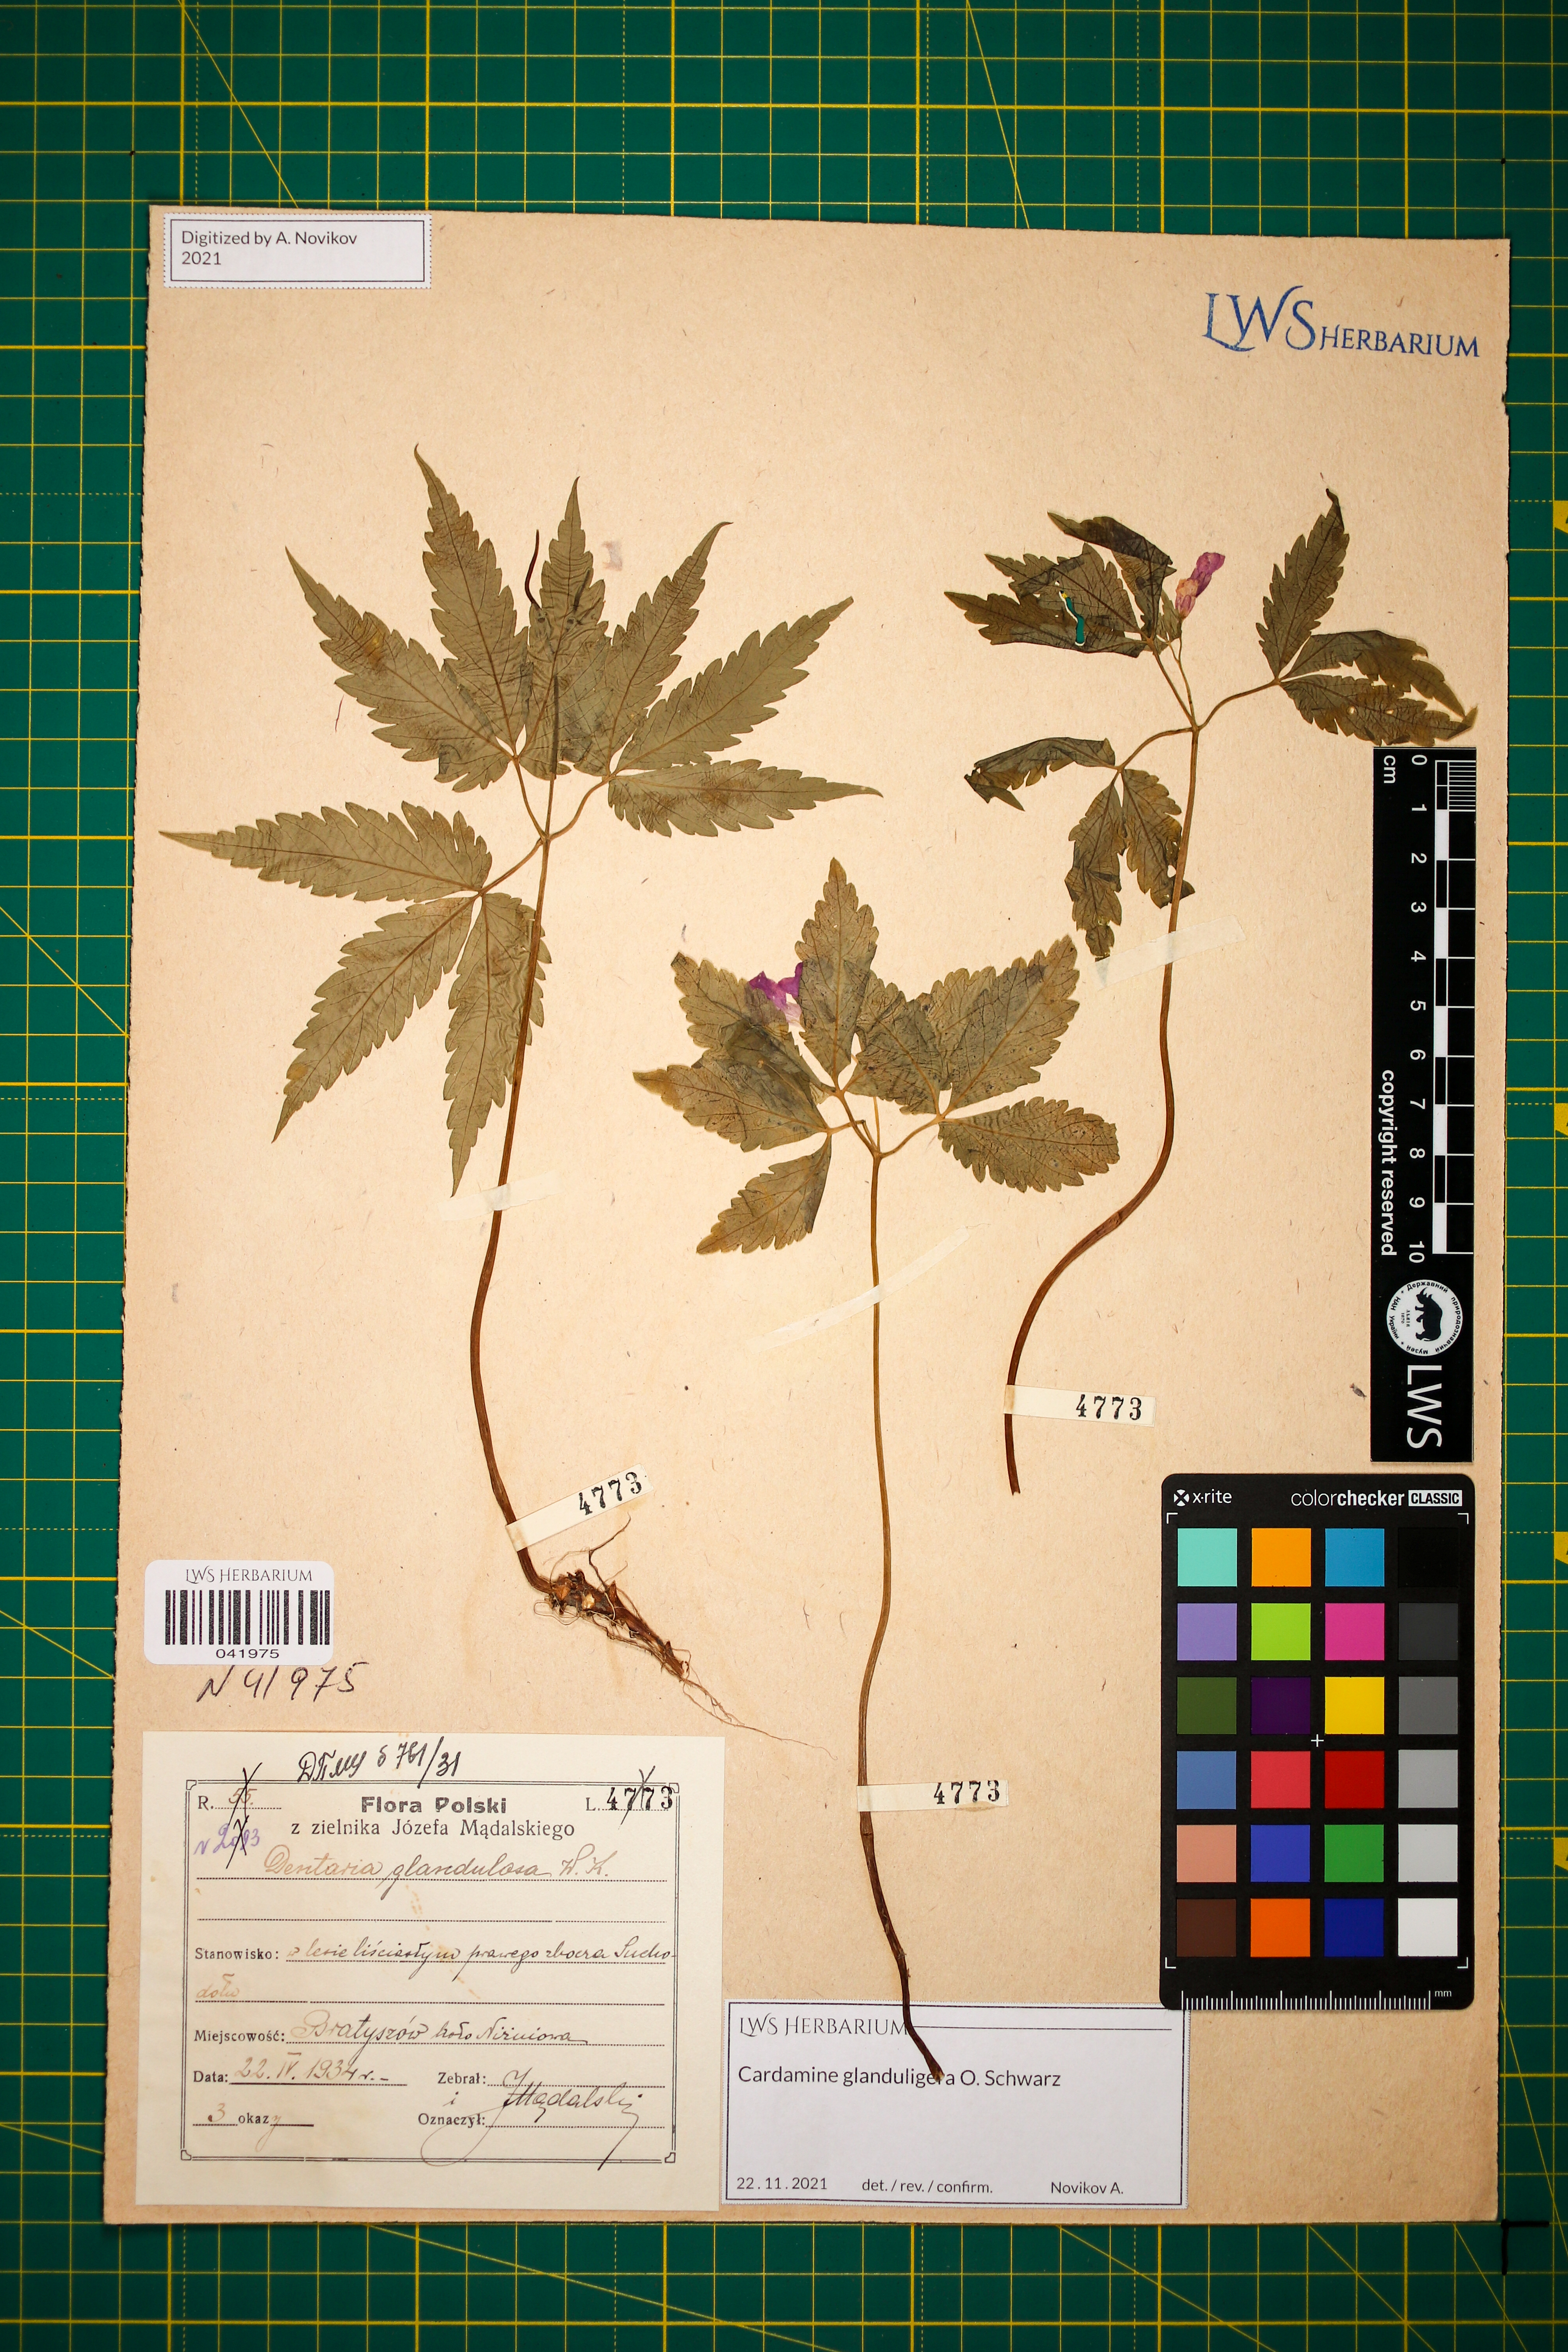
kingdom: Plantae
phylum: Tracheophyta
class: Magnoliopsida
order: Brassicales
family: Brassicaceae
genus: Cardamine
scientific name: Cardamine glanduligera
